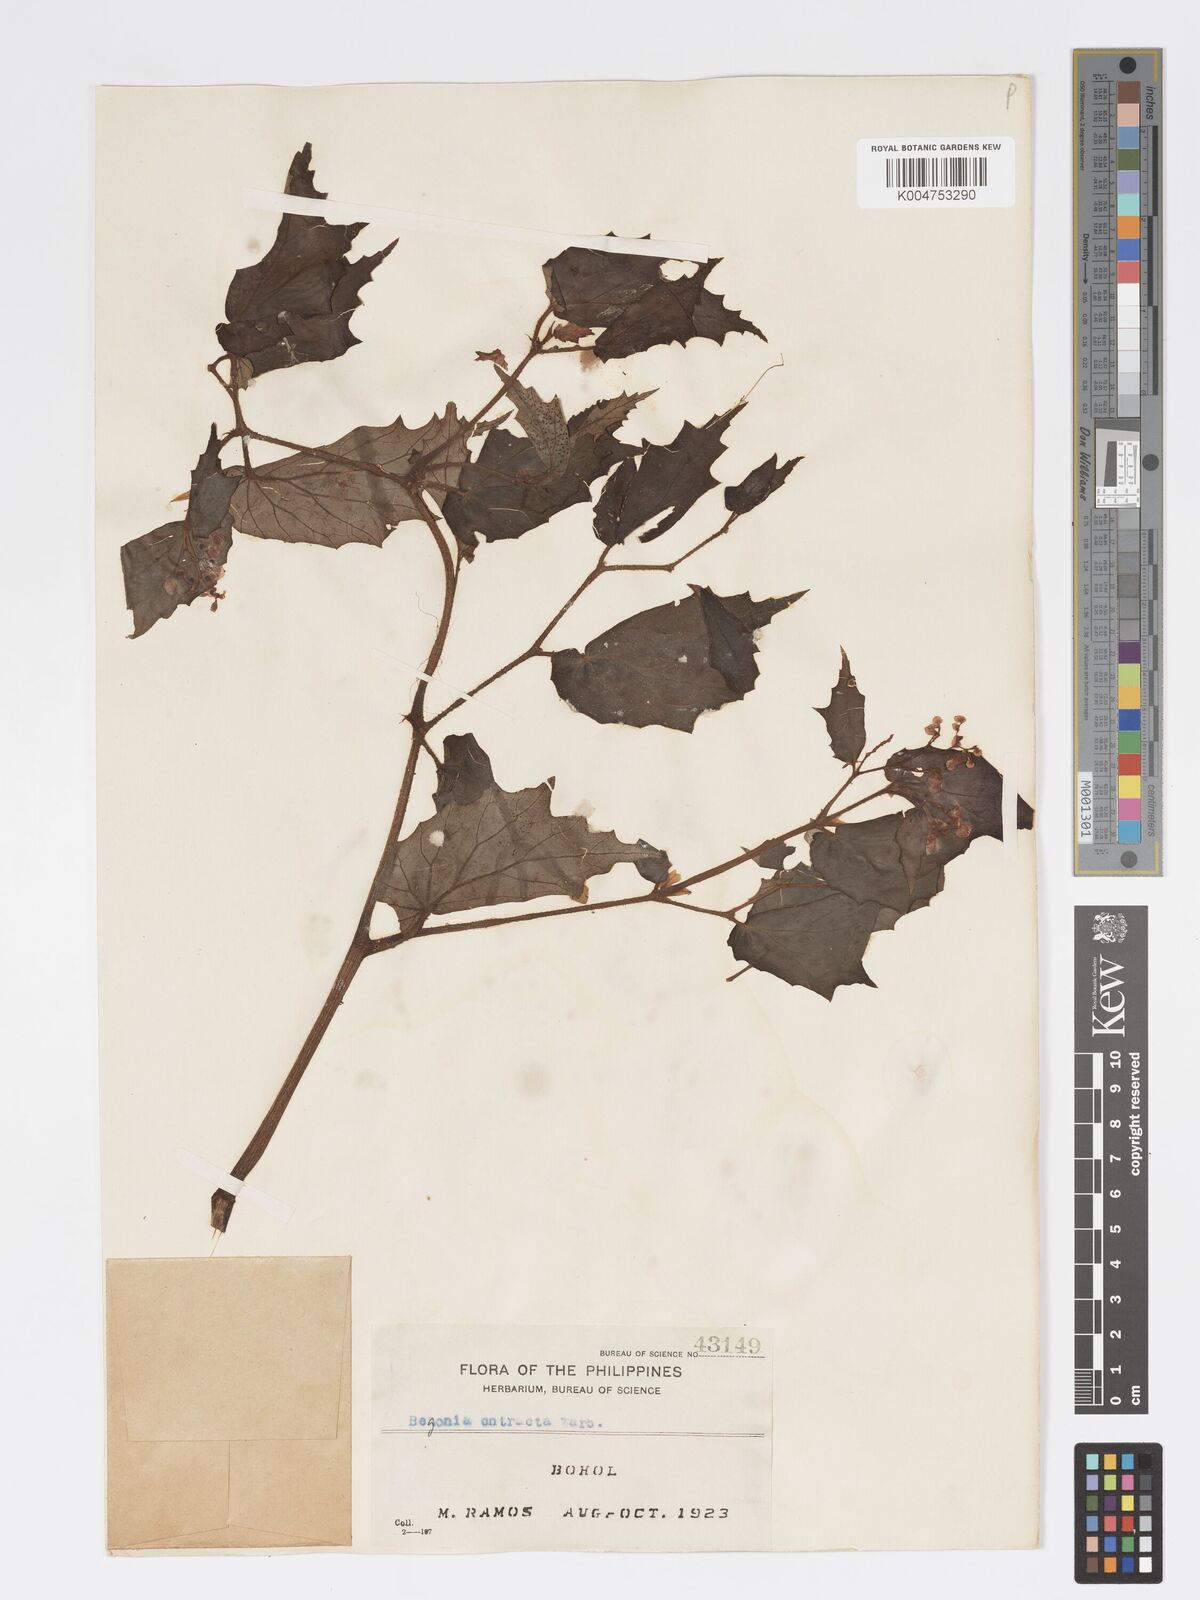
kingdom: Plantae
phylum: Tracheophyta
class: Magnoliopsida
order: Cucurbitales
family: Begoniaceae
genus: Begonia
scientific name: Begonia contracta
